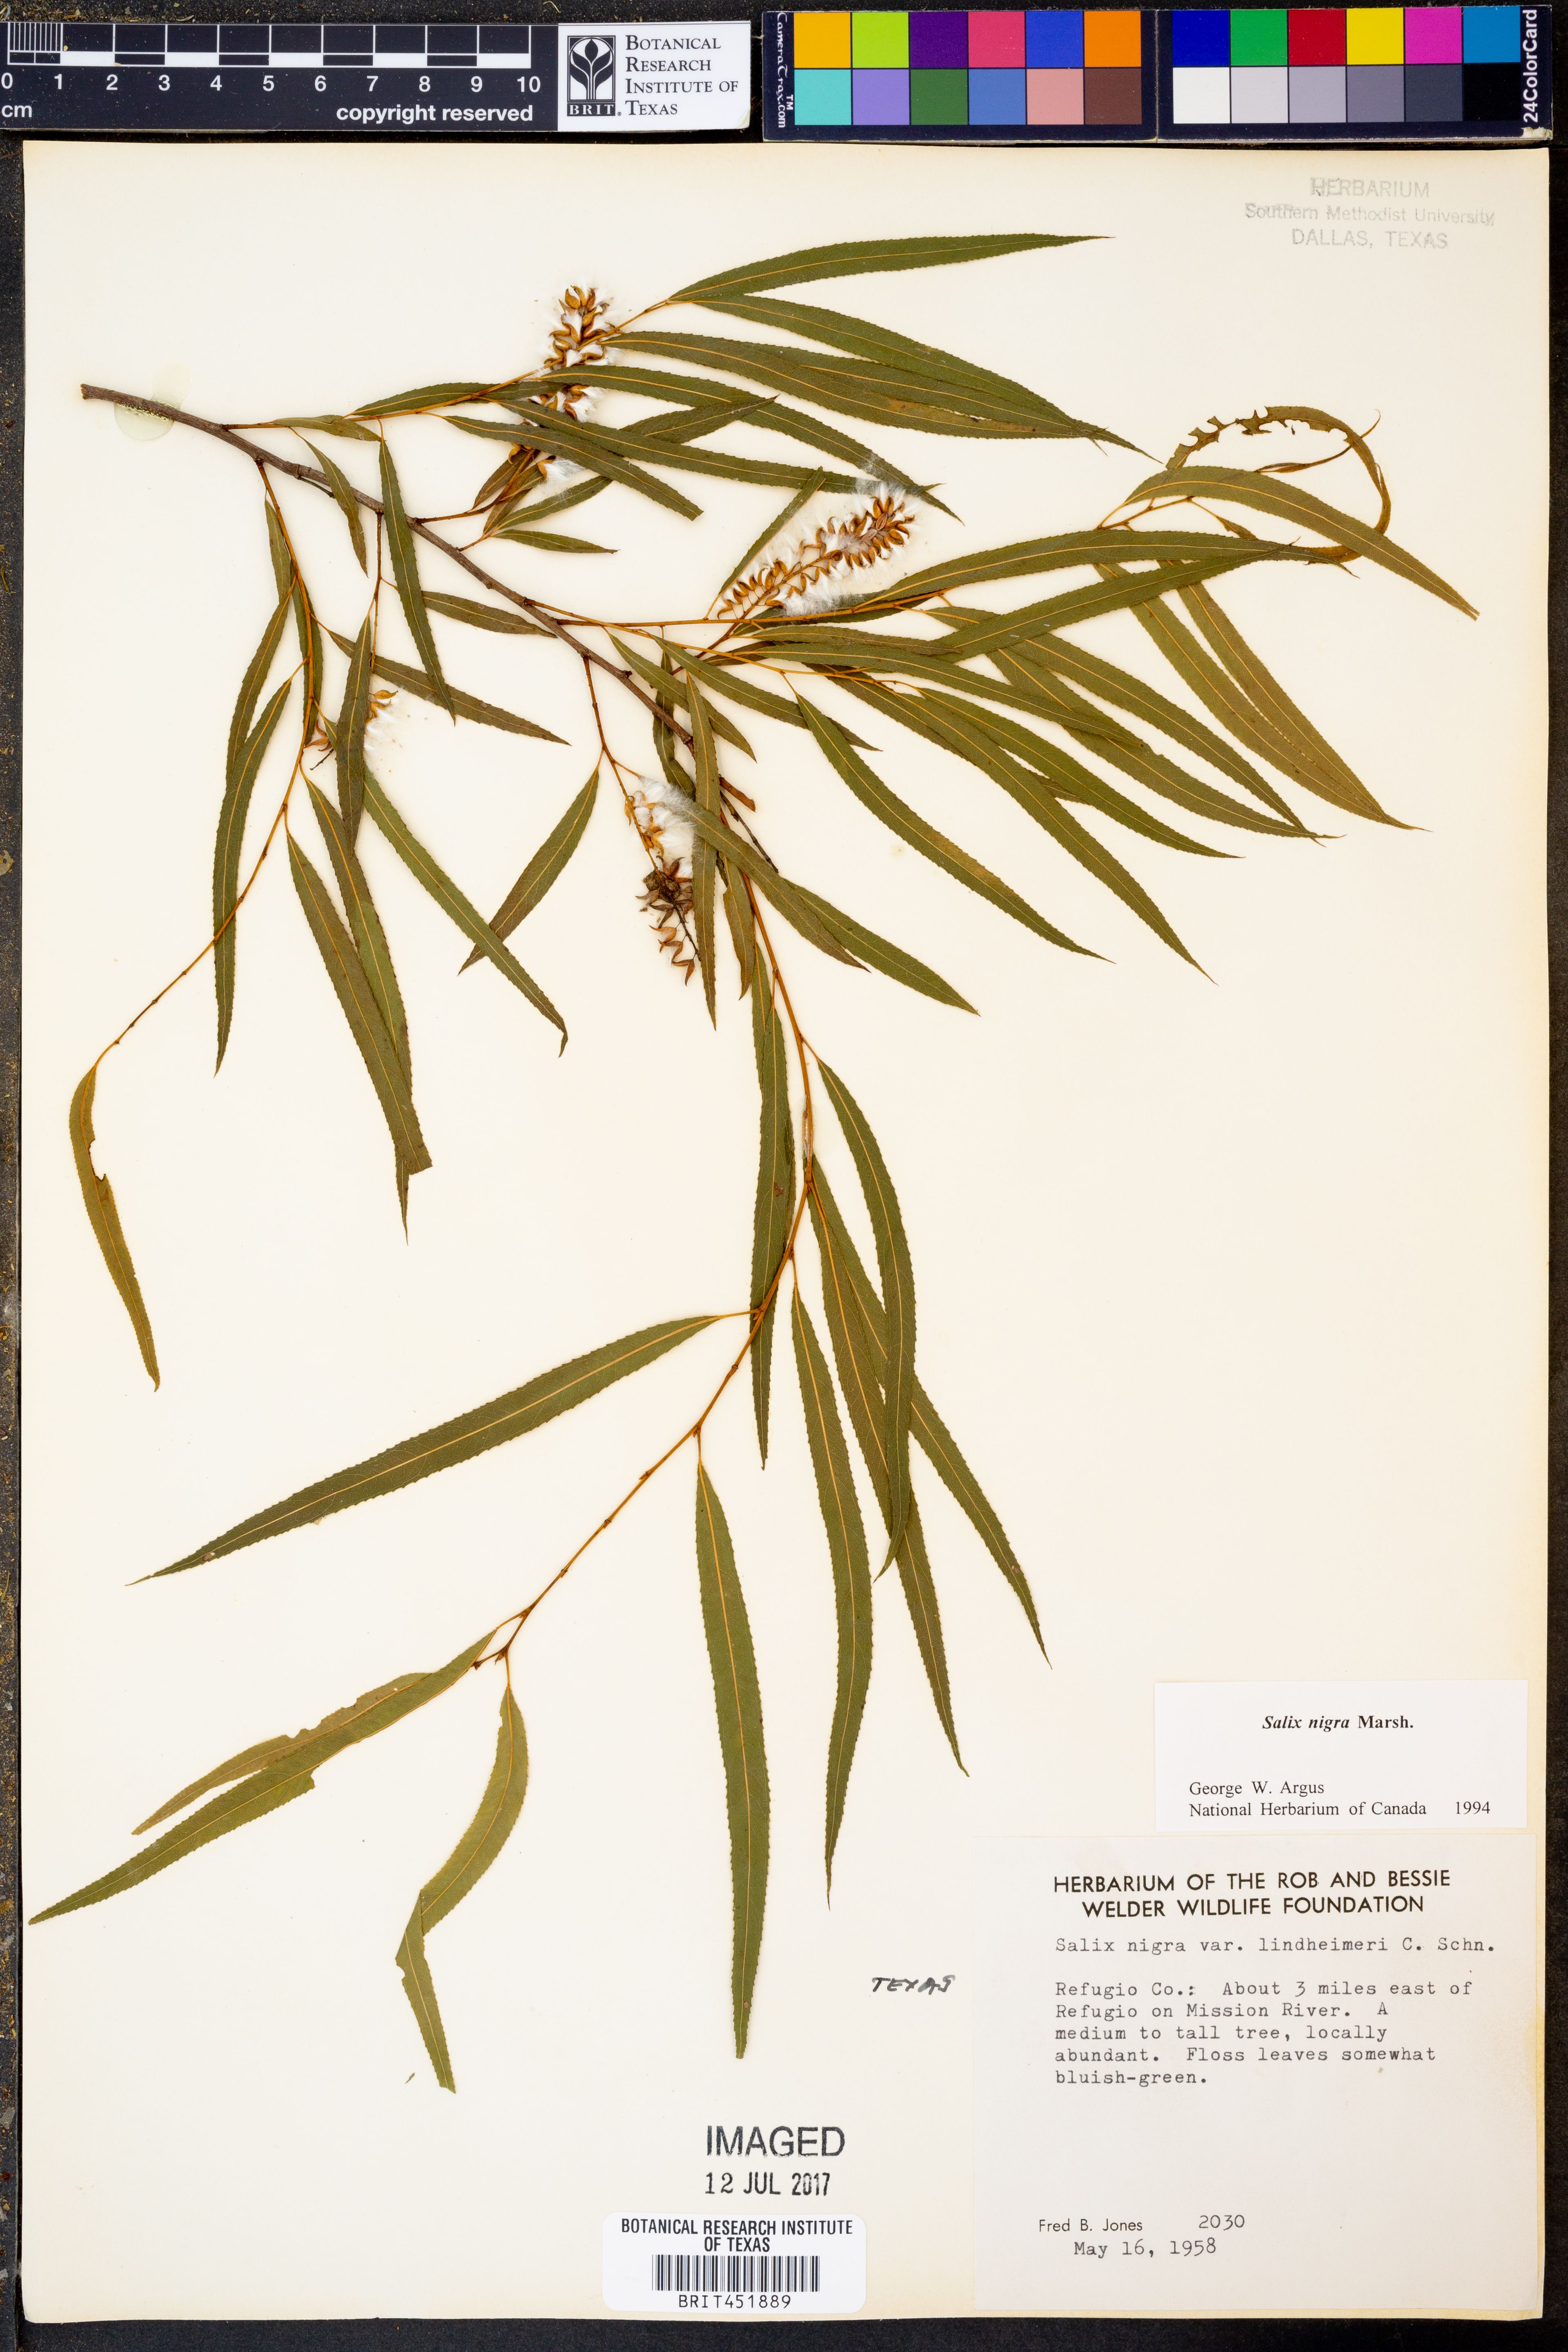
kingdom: Plantae
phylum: Tracheophyta
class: Magnoliopsida
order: Malpighiales
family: Salicaceae
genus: Salix
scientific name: Salix nigra
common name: Black willow
